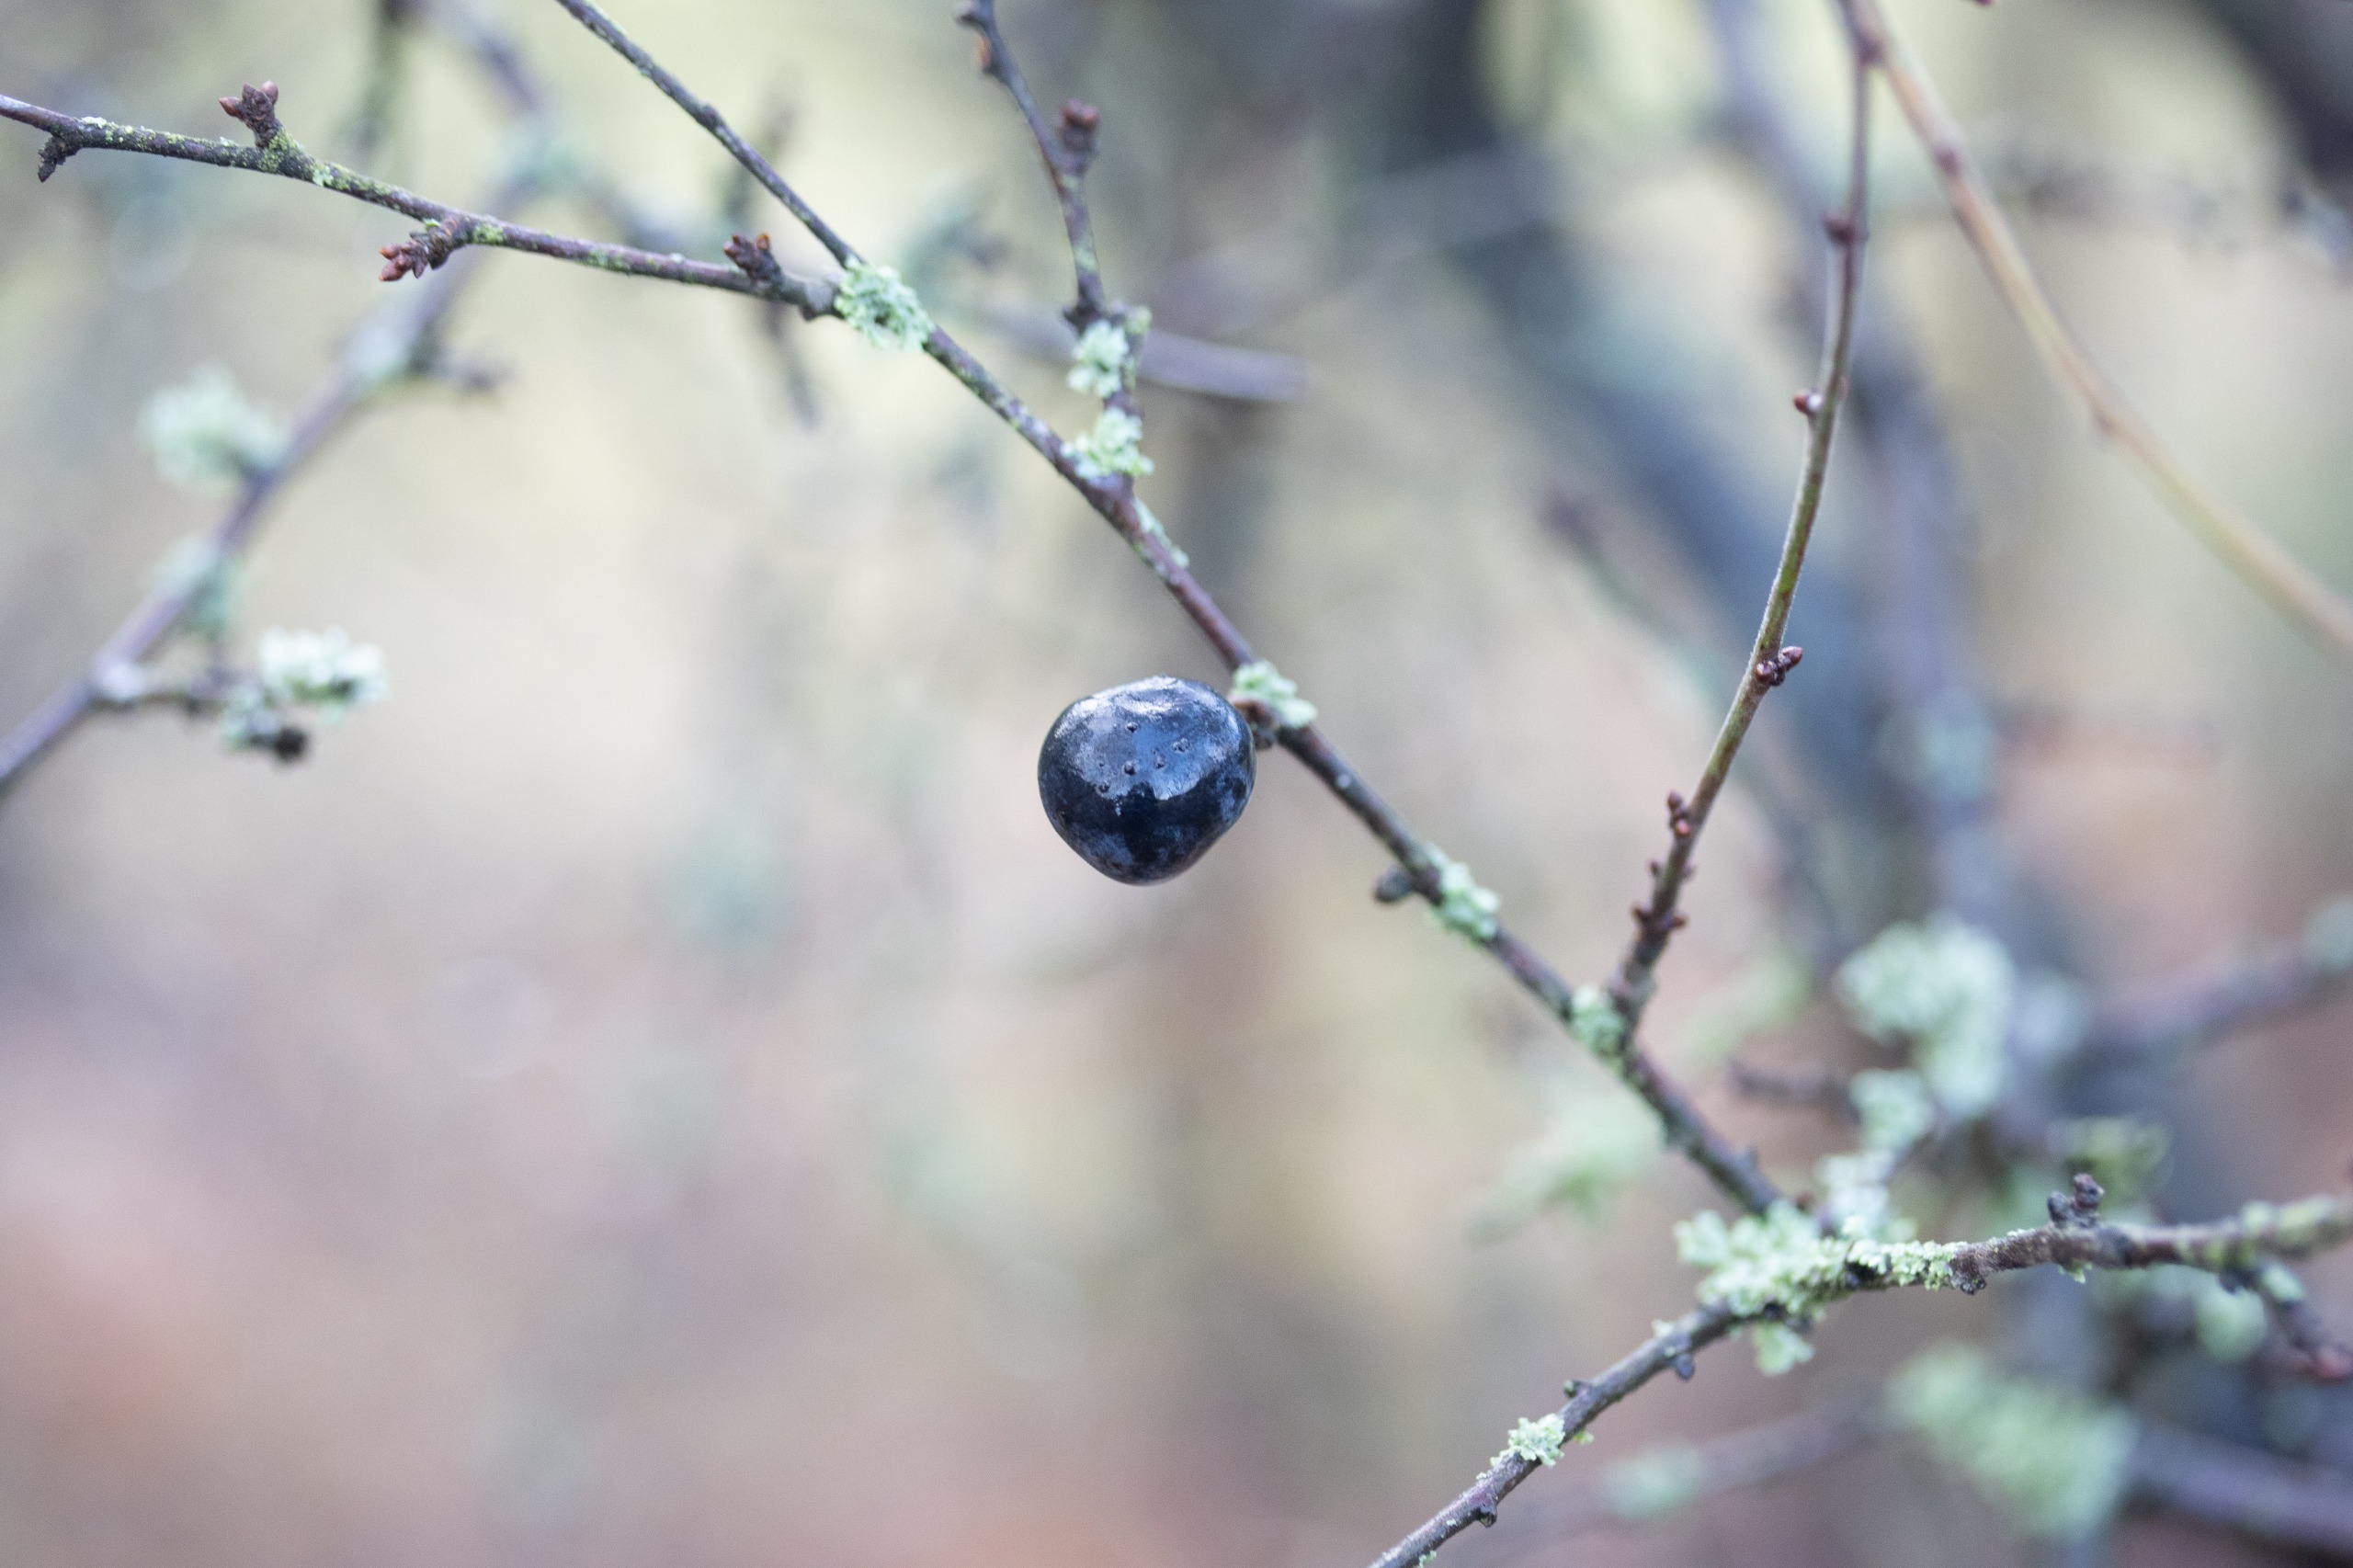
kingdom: Plantae
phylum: Tracheophyta
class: Magnoliopsida
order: Rosales
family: Rosaceae
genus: Prunus
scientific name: Prunus spinosa
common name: Slåen
